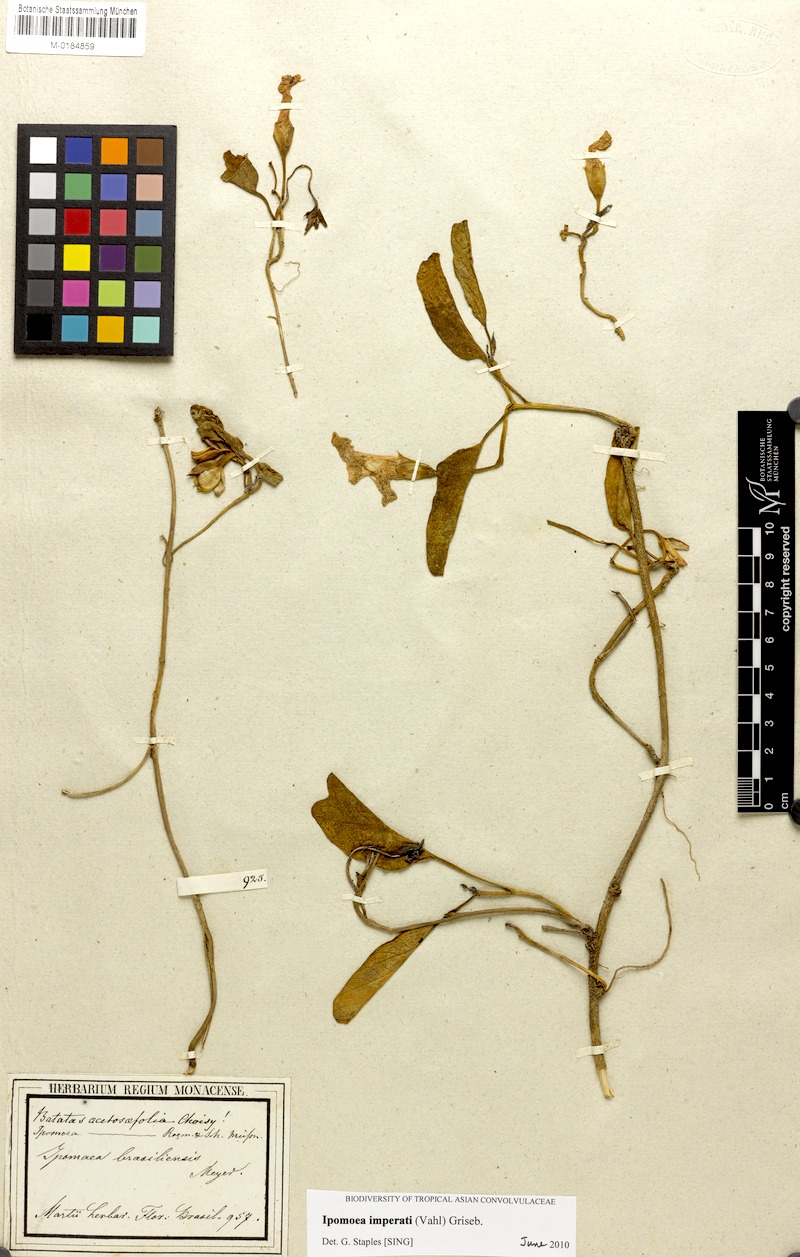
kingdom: Plantae
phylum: Tracheophyta
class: Magnoliopsida
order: Solanales
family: Convolvulaceae
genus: Ipomoea
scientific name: Ipomoea imperati
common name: Fiddle-leaf morning-glory
